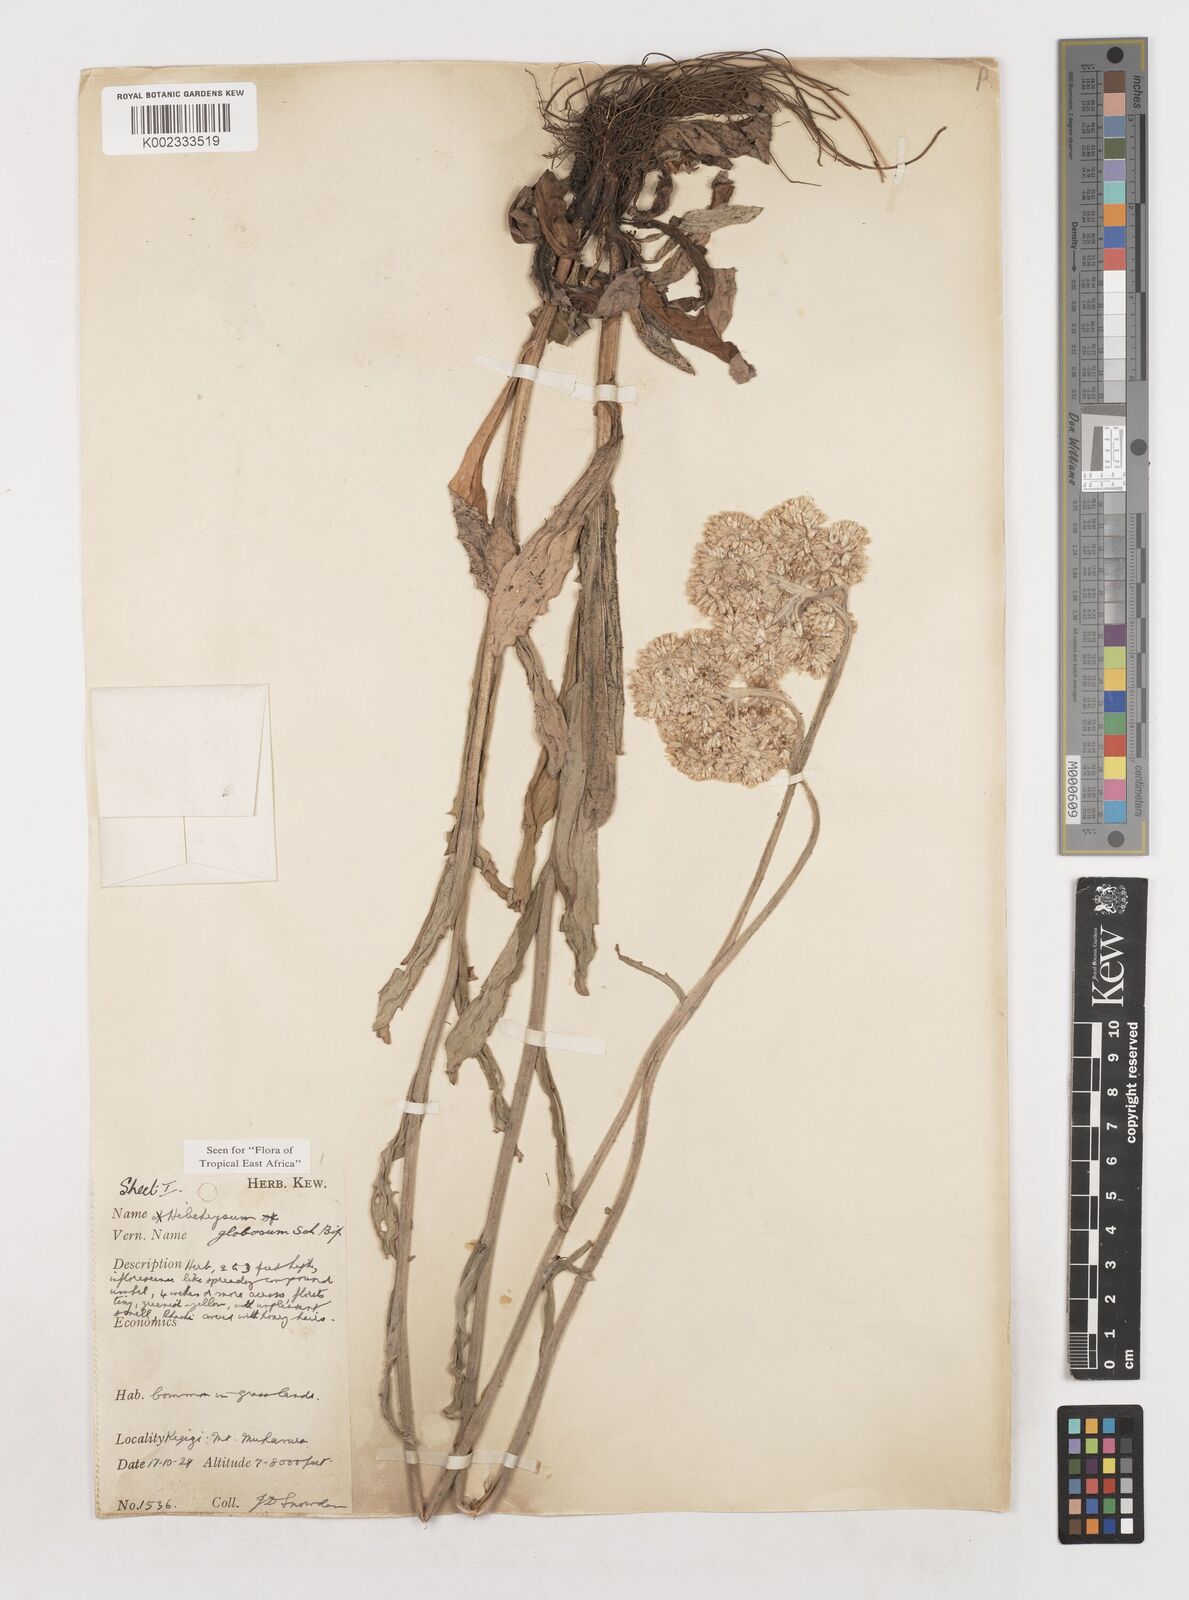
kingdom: Plantae
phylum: Tracheophyta
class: Magnoliopsida
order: Asterales
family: Asteraceae
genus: Helichrysum
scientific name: Helichrysum globosum
